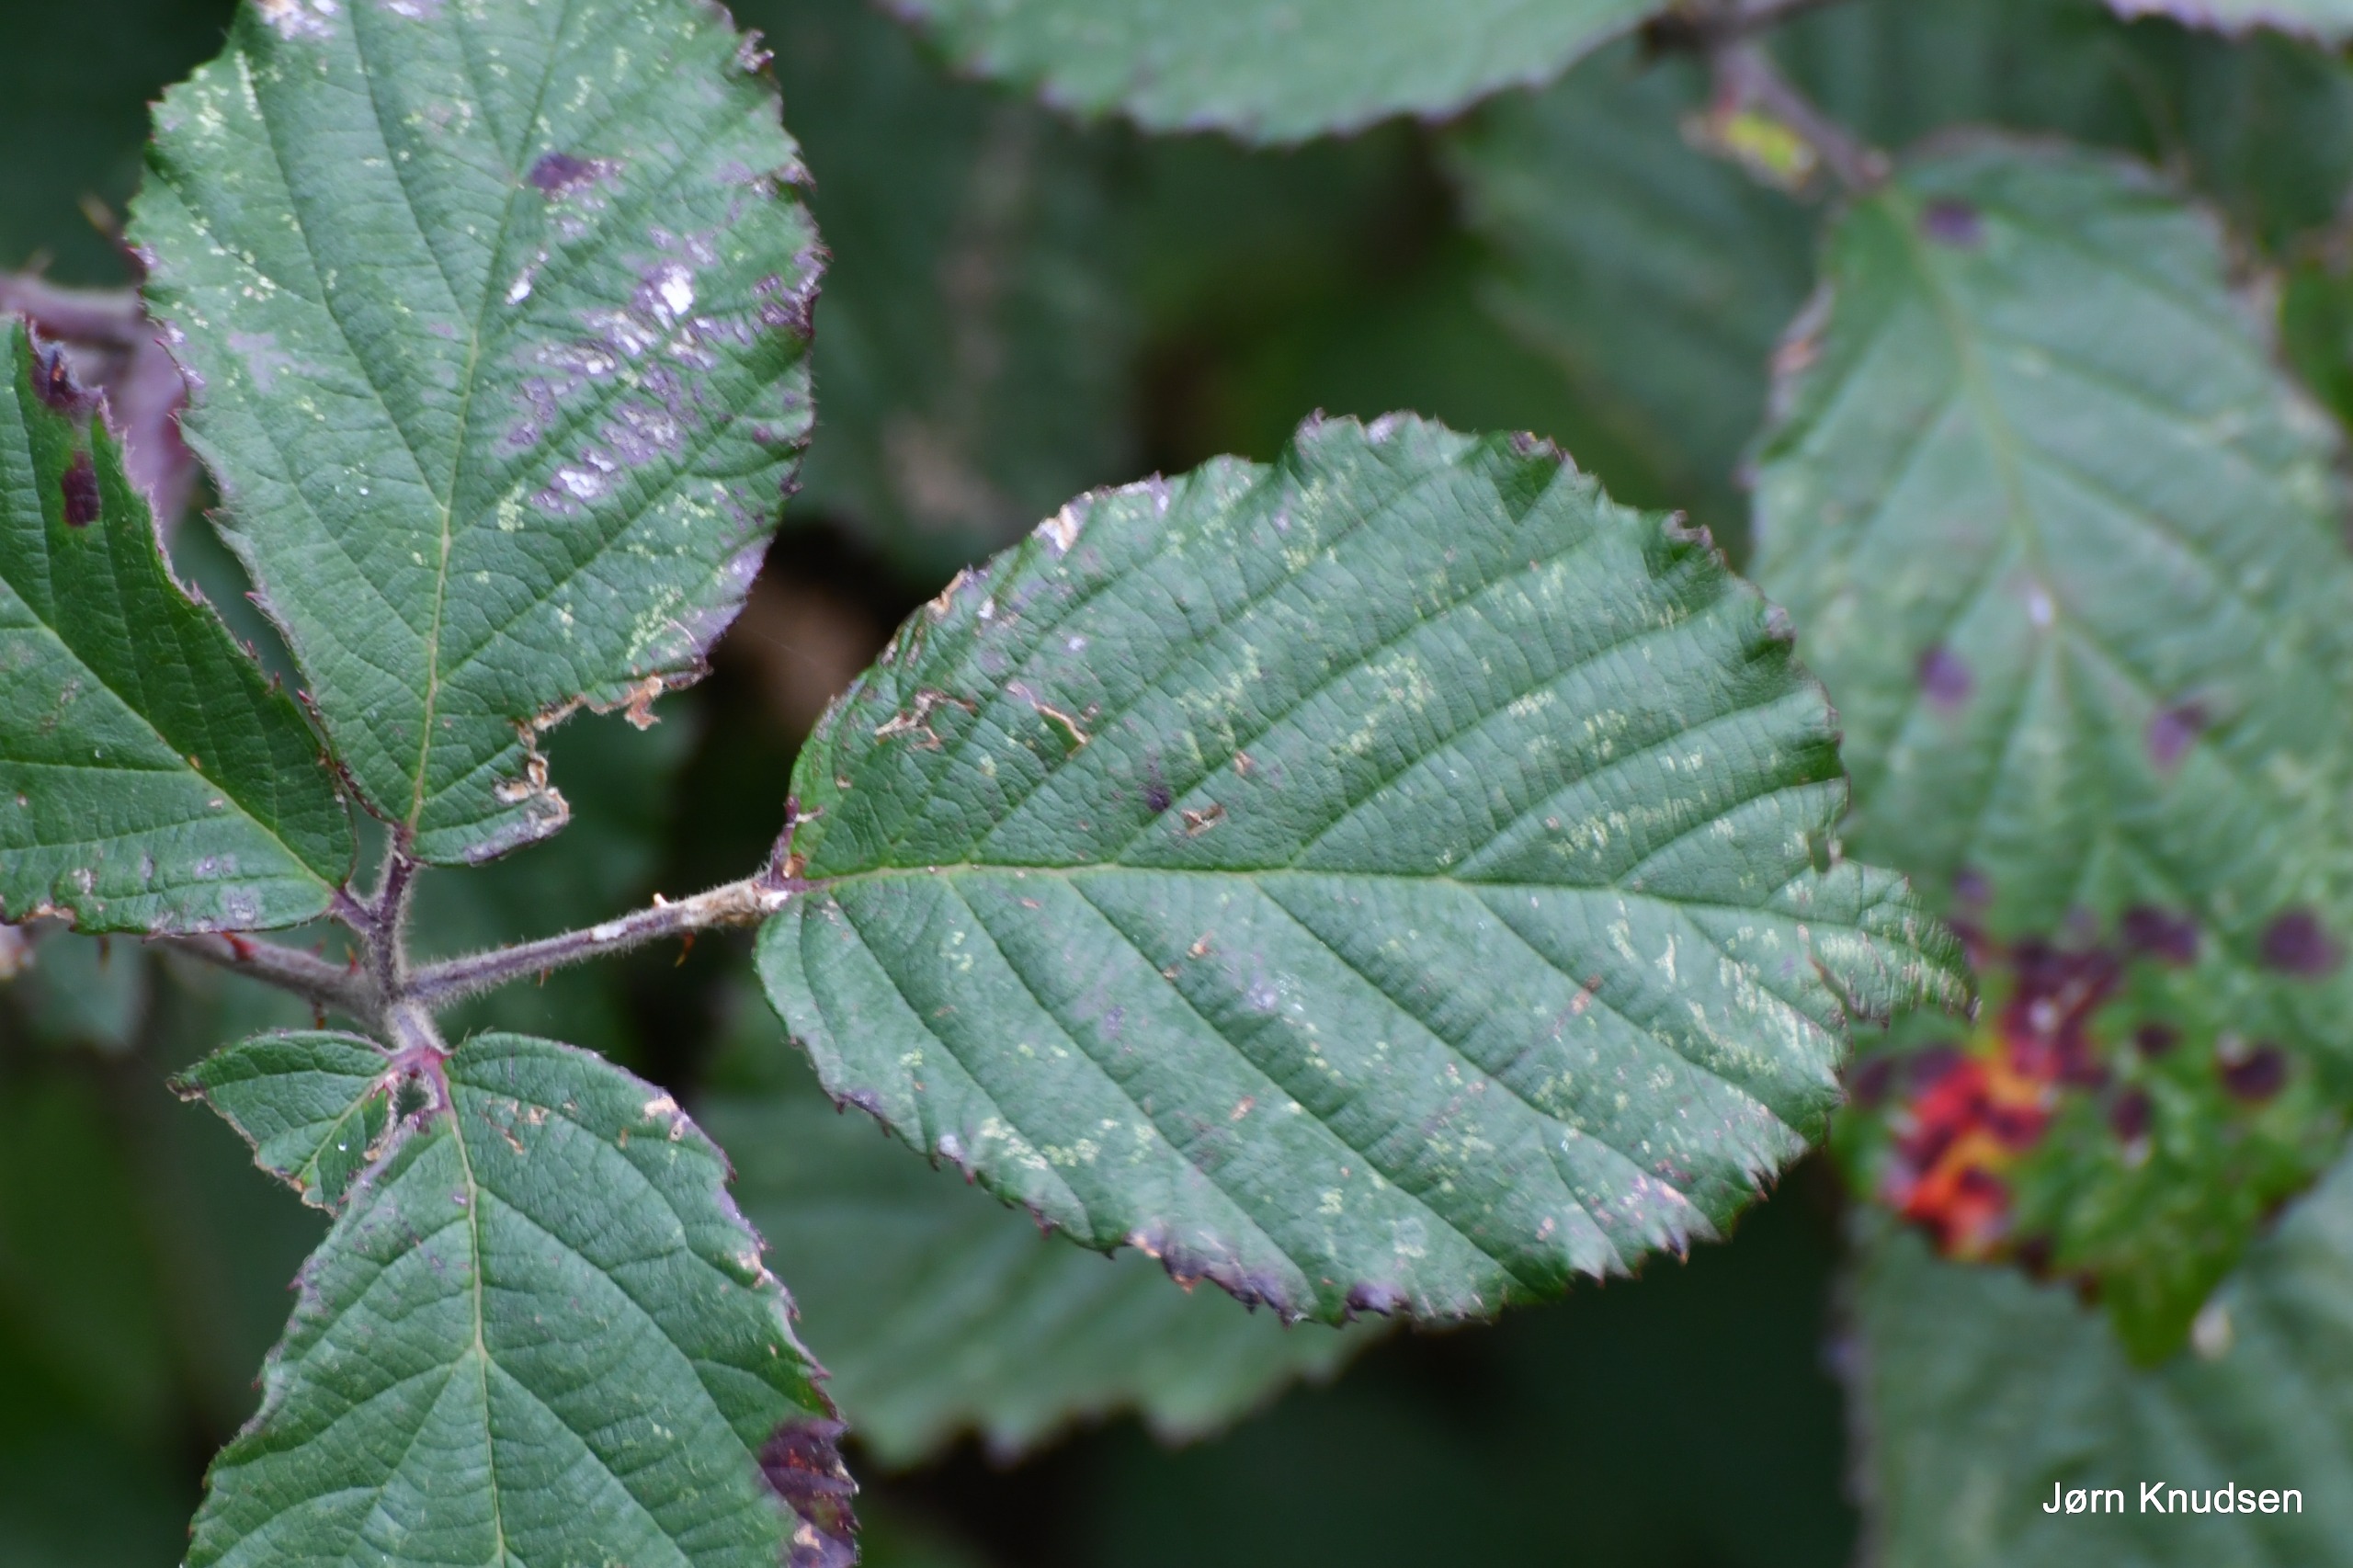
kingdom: Plantae
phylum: Tracheophyta
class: Magnoliopsida
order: Rosales
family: Rosaceae
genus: Rubus
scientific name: Rubus
